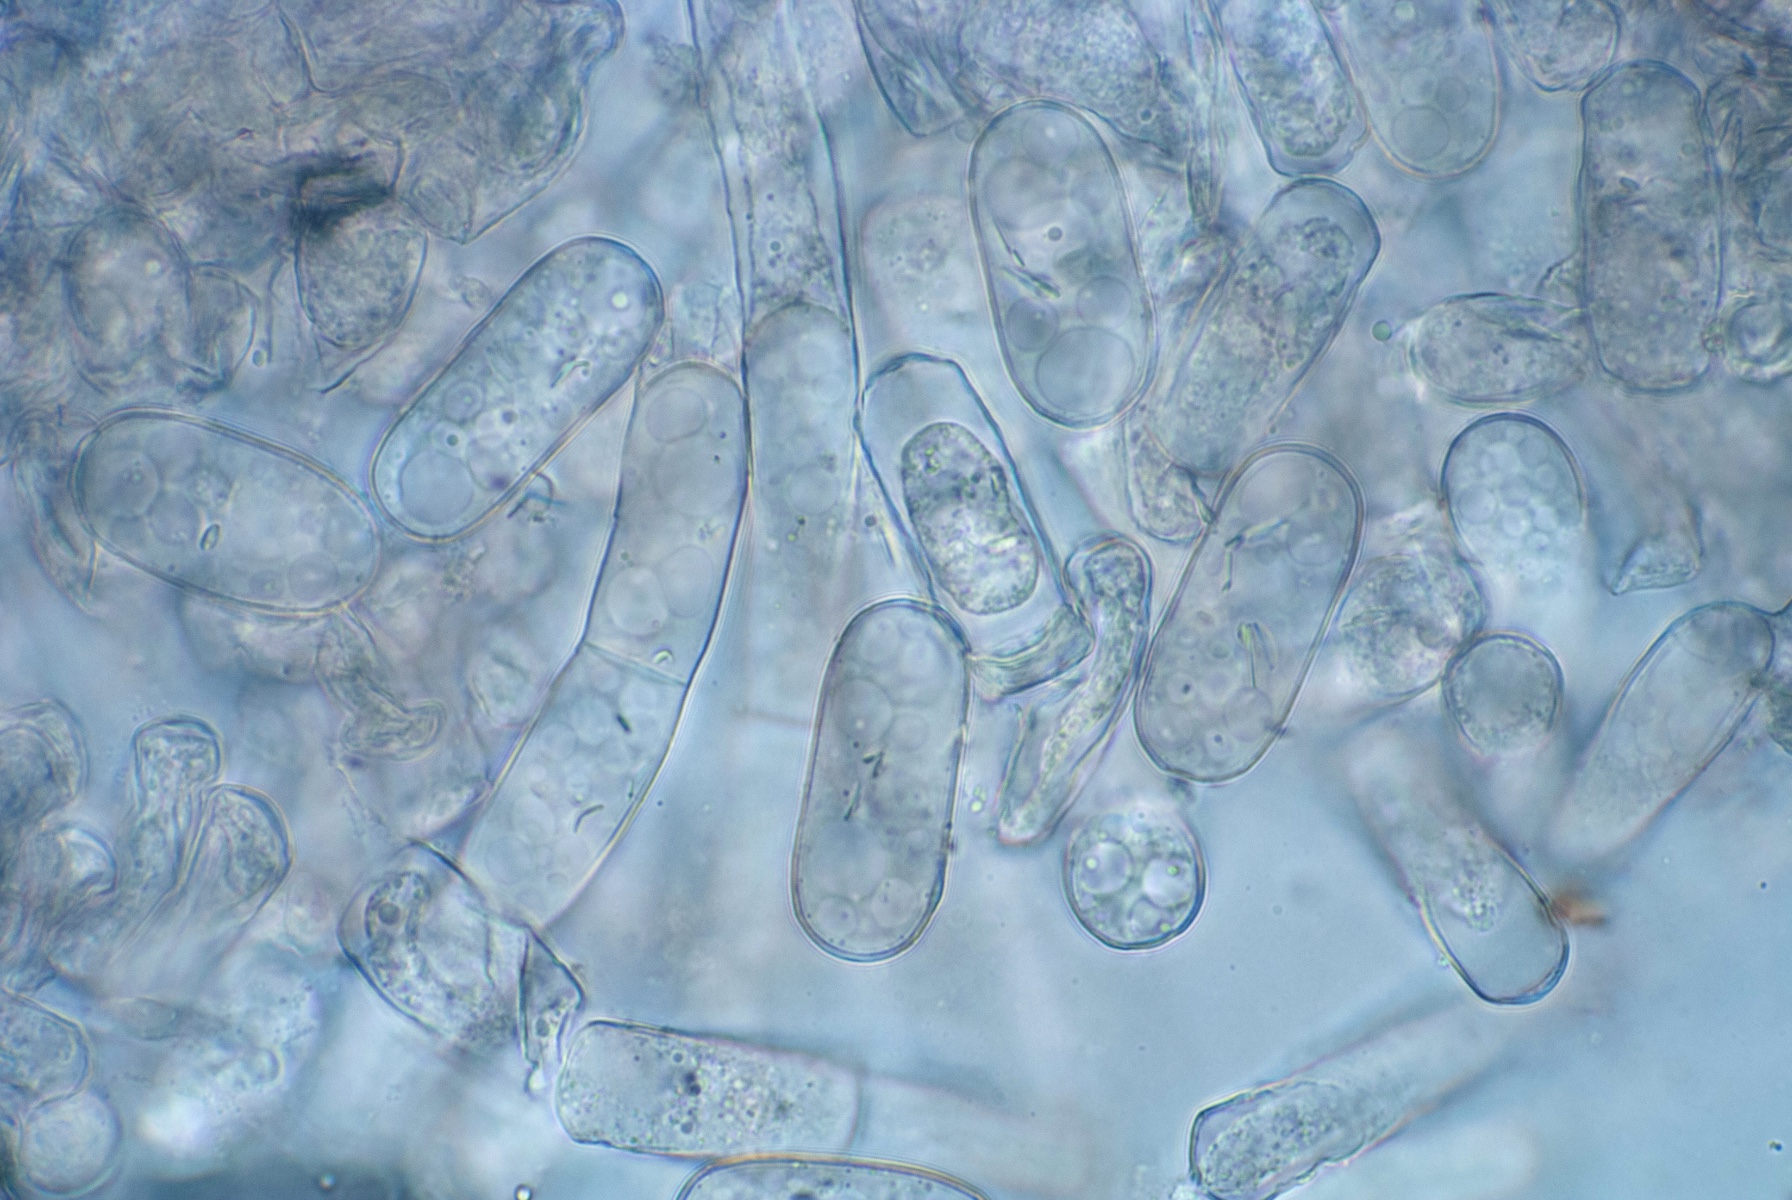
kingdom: Fungi
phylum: Ascomycota
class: Leotiomycetes
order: Helotiales
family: Erysiphaceae
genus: Podosphaera
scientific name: Podosphaera lini
